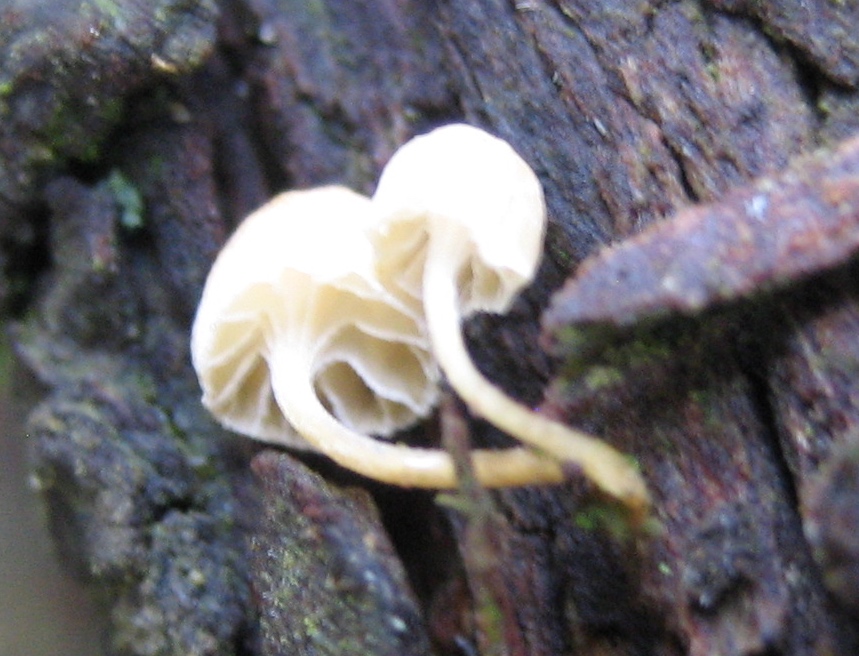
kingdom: Fungi
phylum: Basidiomycota
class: Agaricomycetes
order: Agaricales
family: Mycenaceae
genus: Mycena
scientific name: Mycena juniperina
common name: ene-Huesvamp
